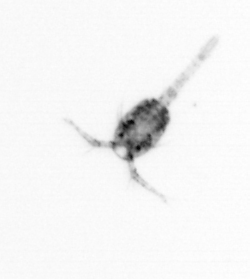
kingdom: Animalia
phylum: Arthropoda
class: Copepoda
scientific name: Copepoda
